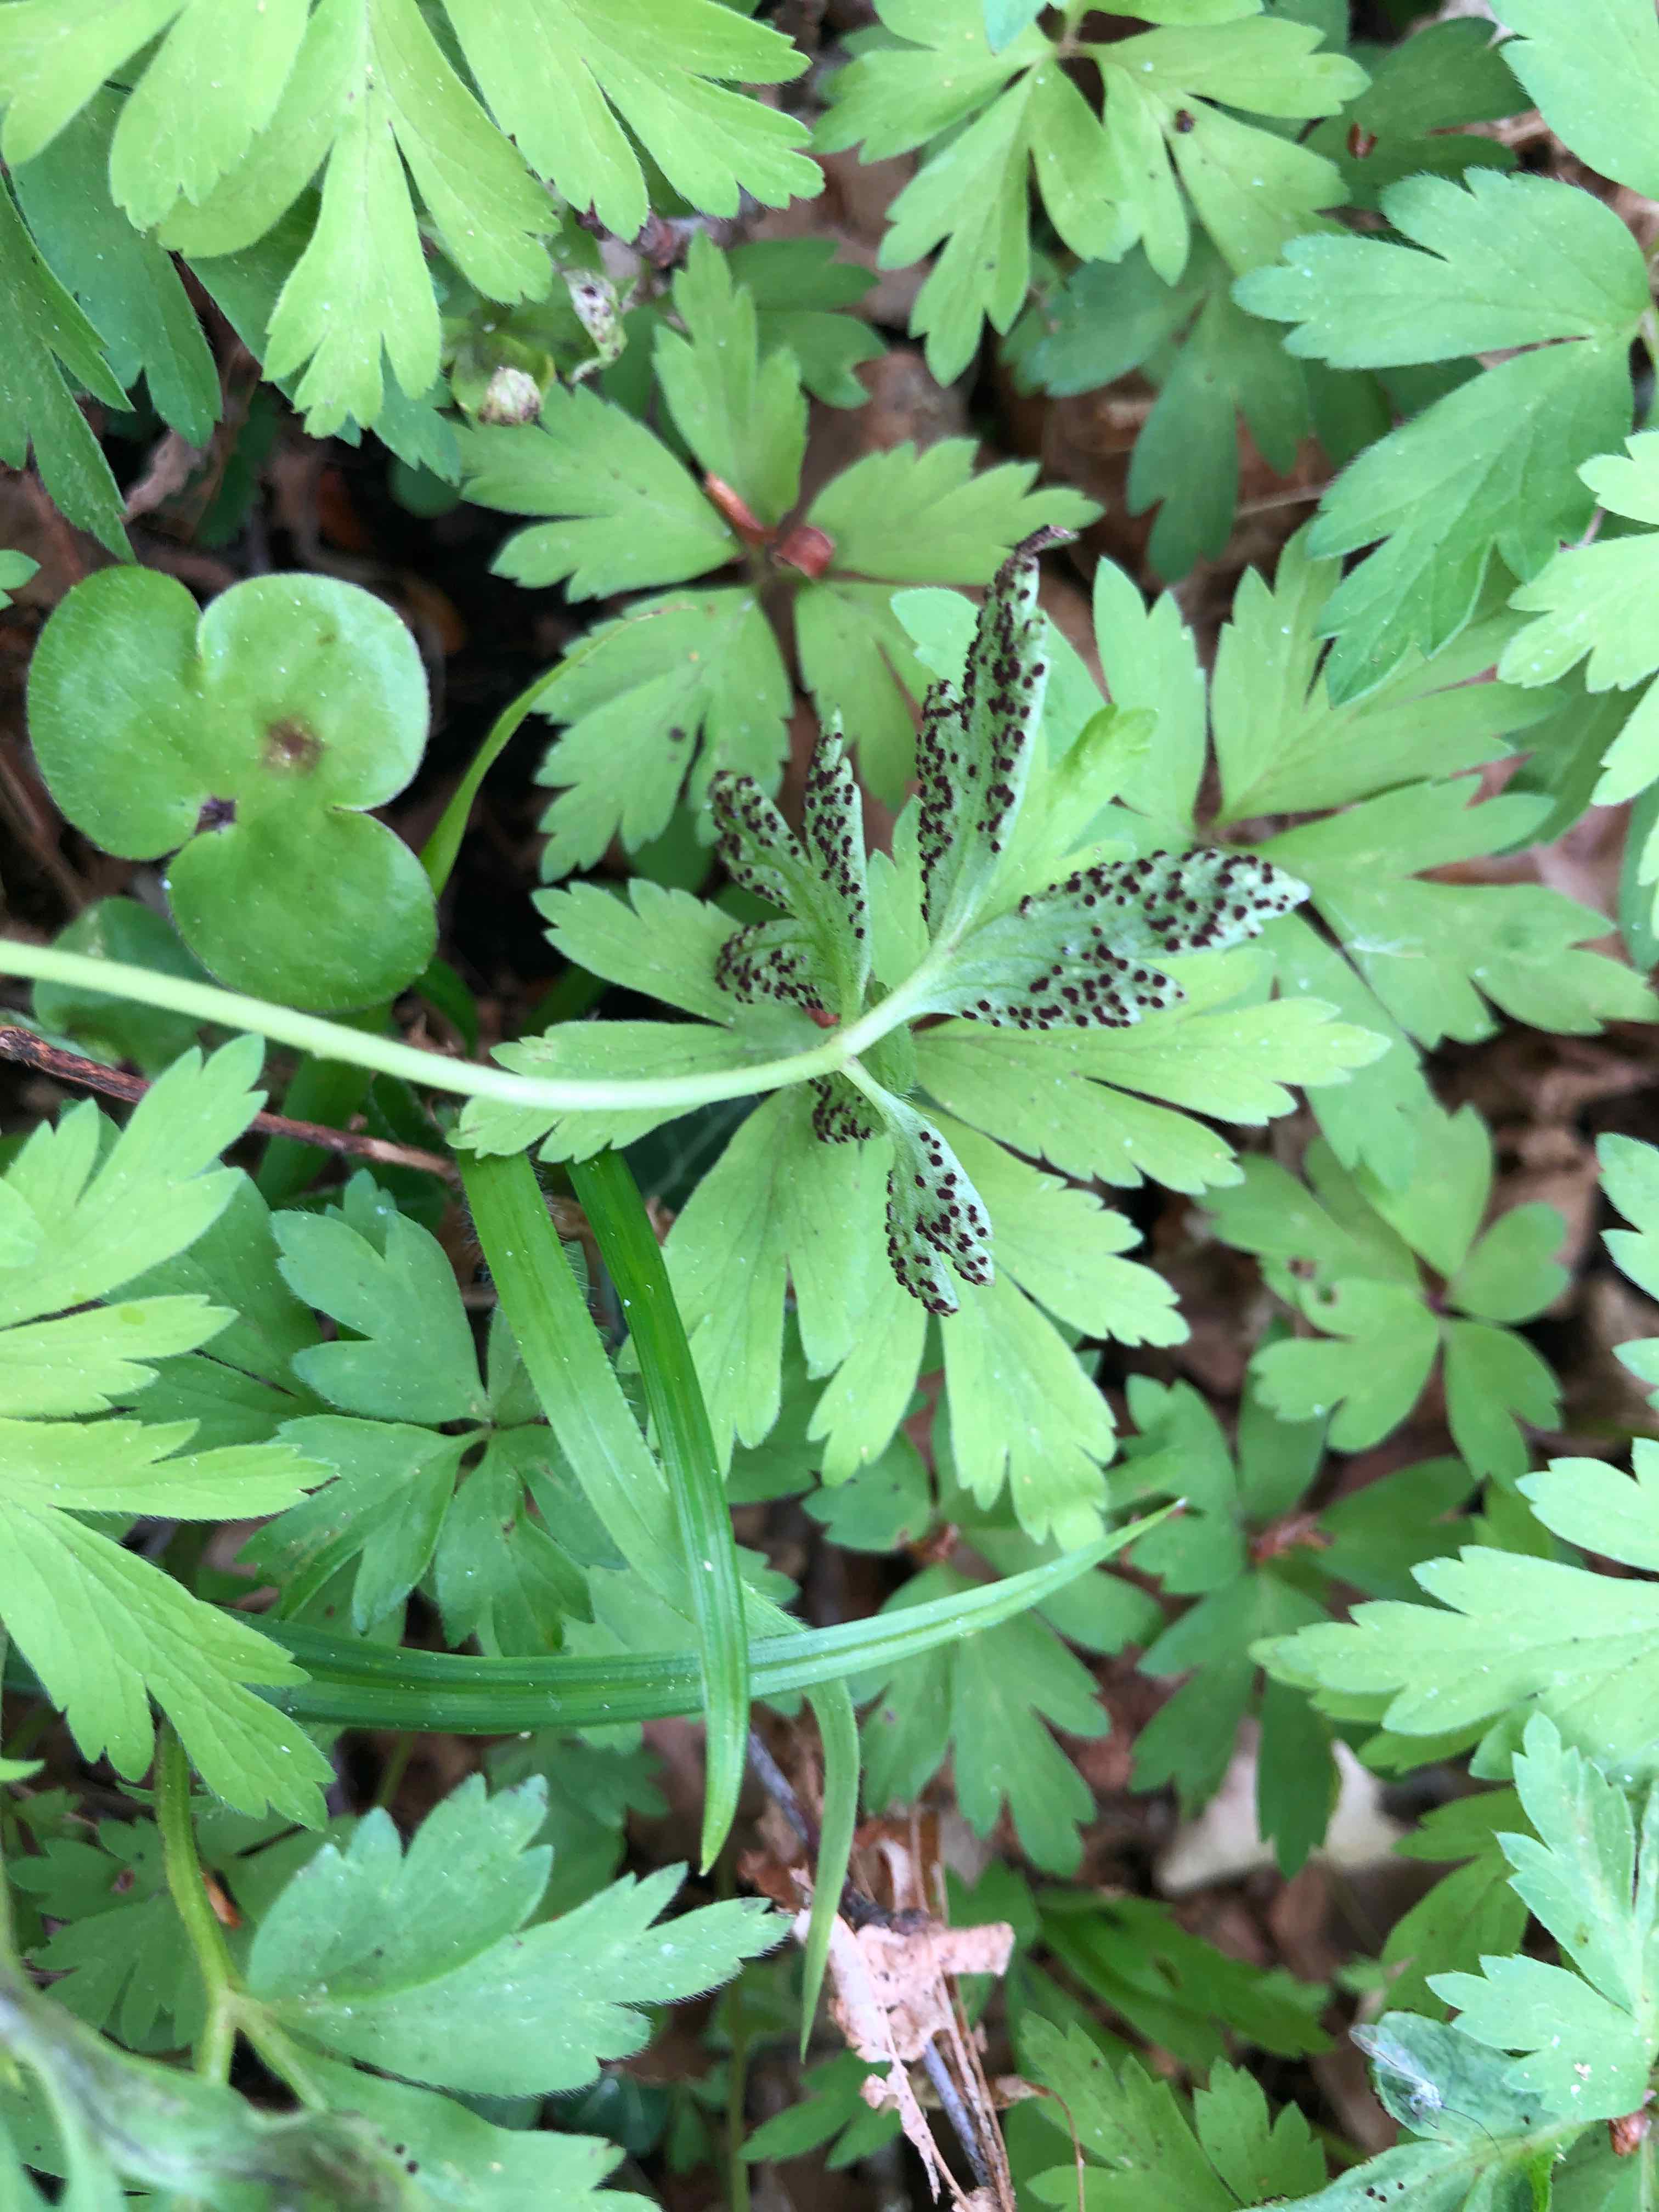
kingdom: Fungi
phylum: Basidiomycota
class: Pucciniomycetes
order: Pucciniales
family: Tranzscheliaceae
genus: Tranzschelia
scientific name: Tranzschelia anemones
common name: anemone-knæksporerust
